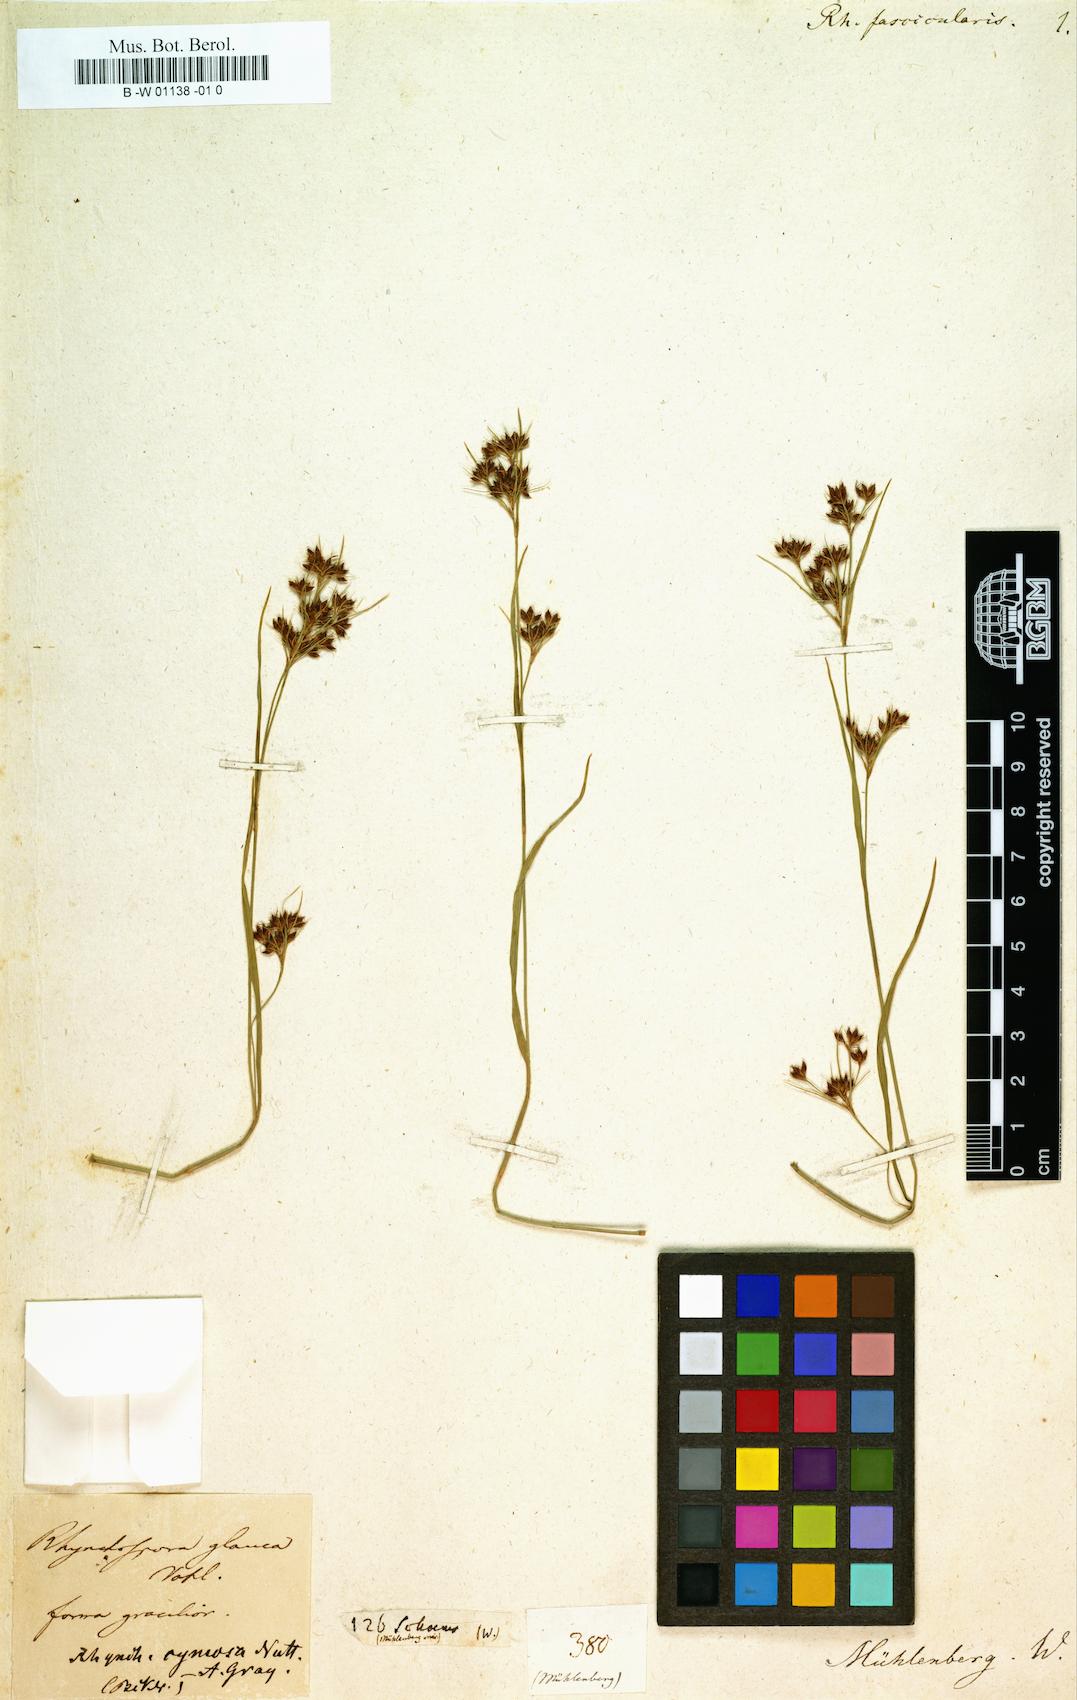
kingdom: Plantae
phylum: Tracheophyta
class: Liliopsida
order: Poales
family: Cyperaceae
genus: Rhynchospora
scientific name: Rhynchospora fascicularis
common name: Fascicled beak sedge
